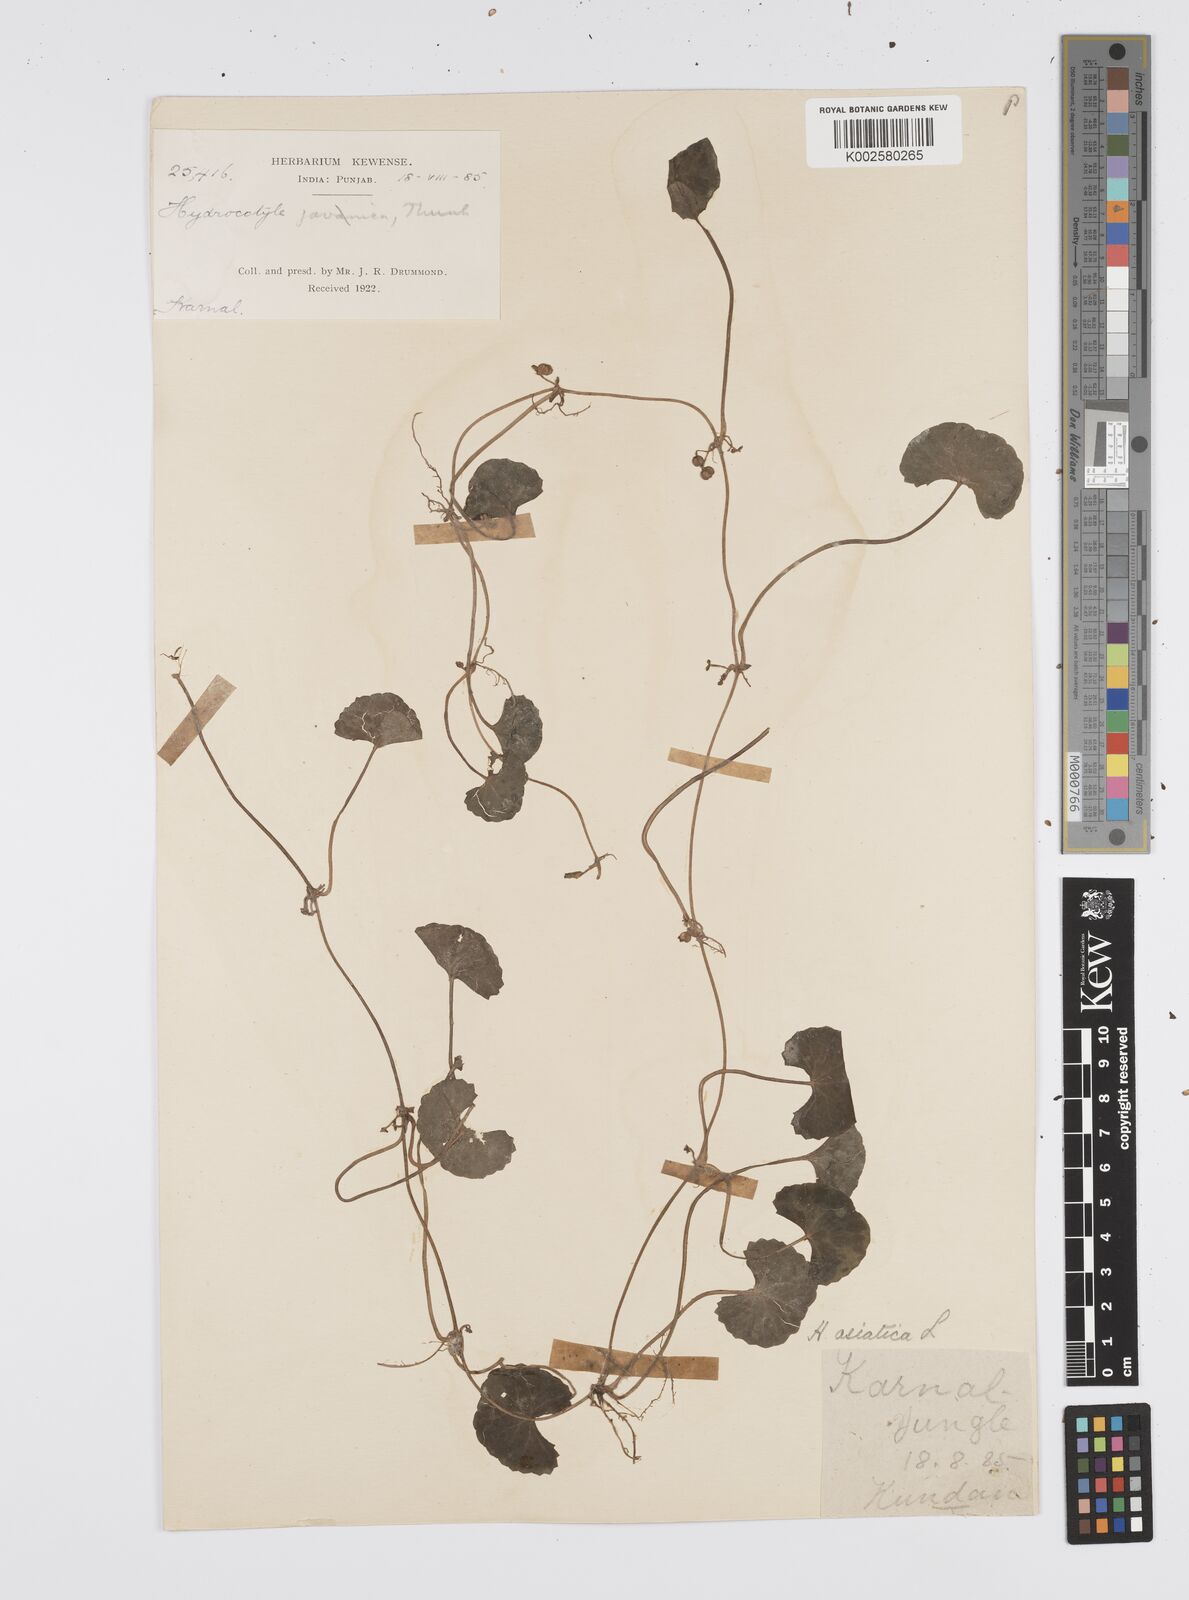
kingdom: Plantae
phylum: Tracheophyta
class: Magnoliopsida
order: Apiales
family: Apiaceae
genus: Centella
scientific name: Centella asiatica
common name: Spadeleaf
